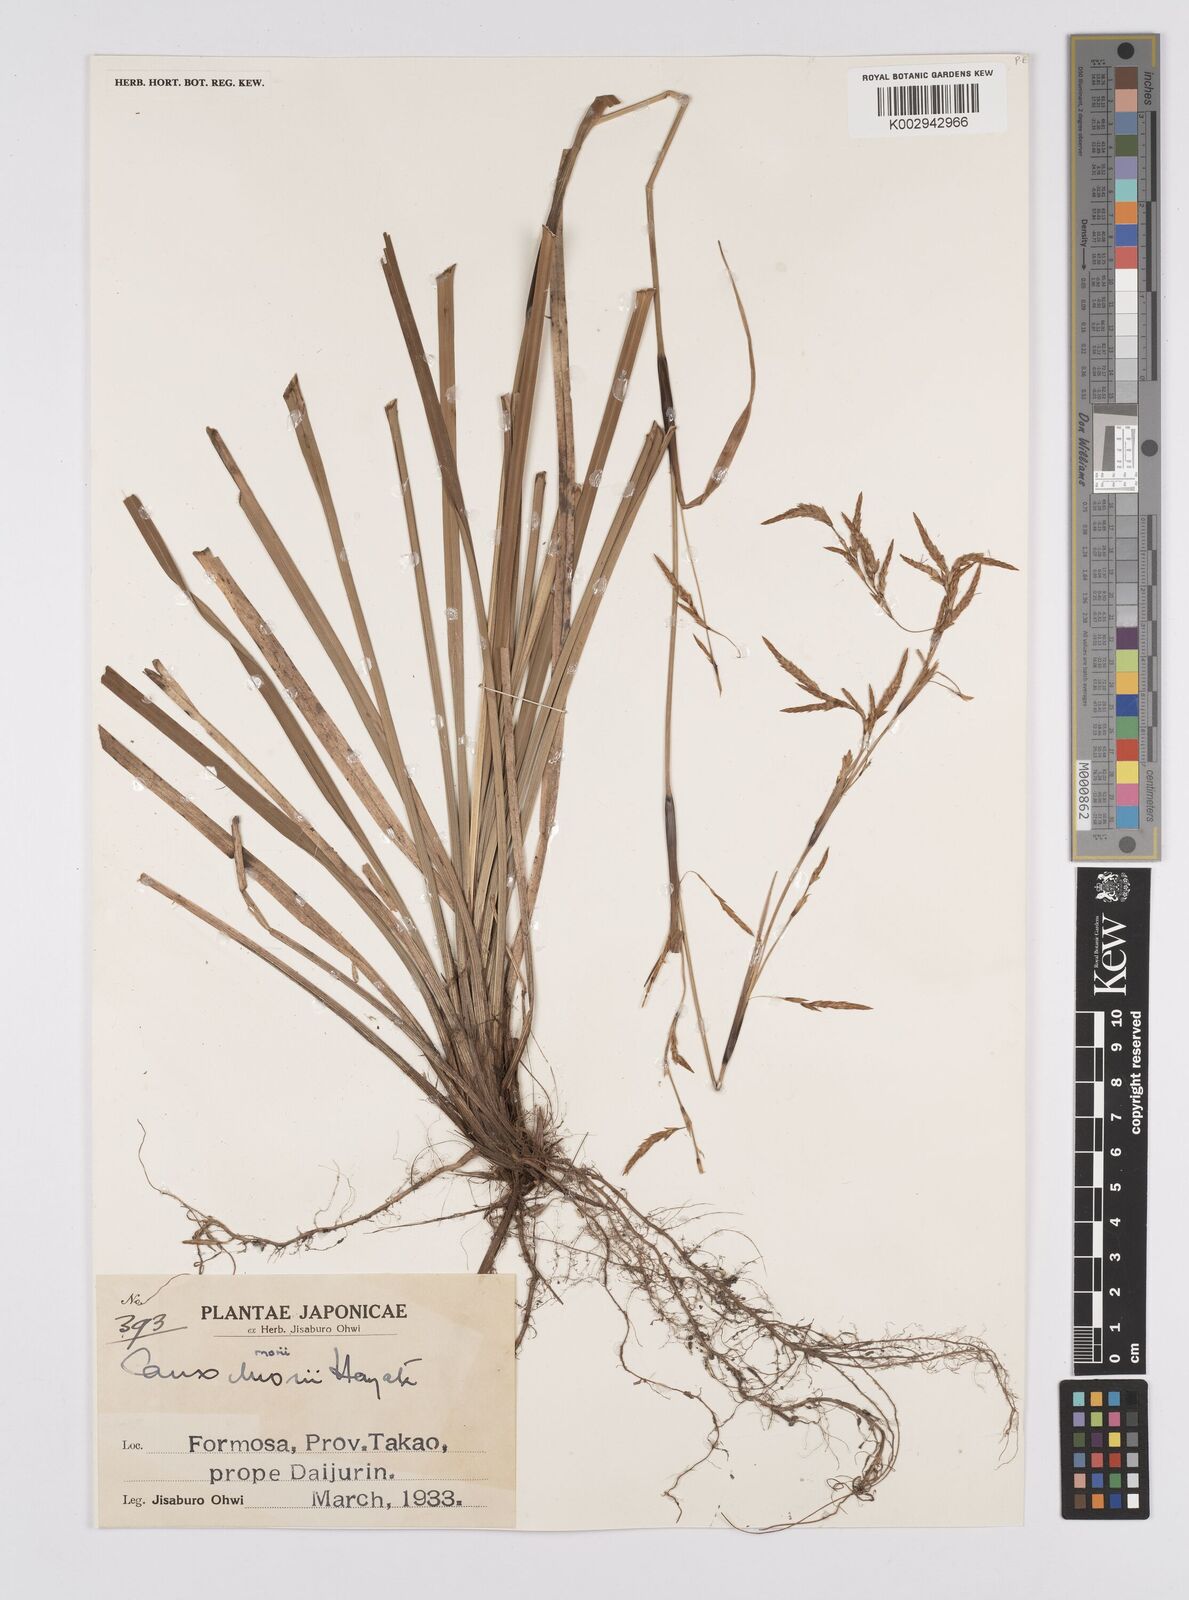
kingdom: Plantae
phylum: Tracheophyta
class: Liliopsida
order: Poales
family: Cyperaceae
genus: Carex
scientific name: Carex morii
